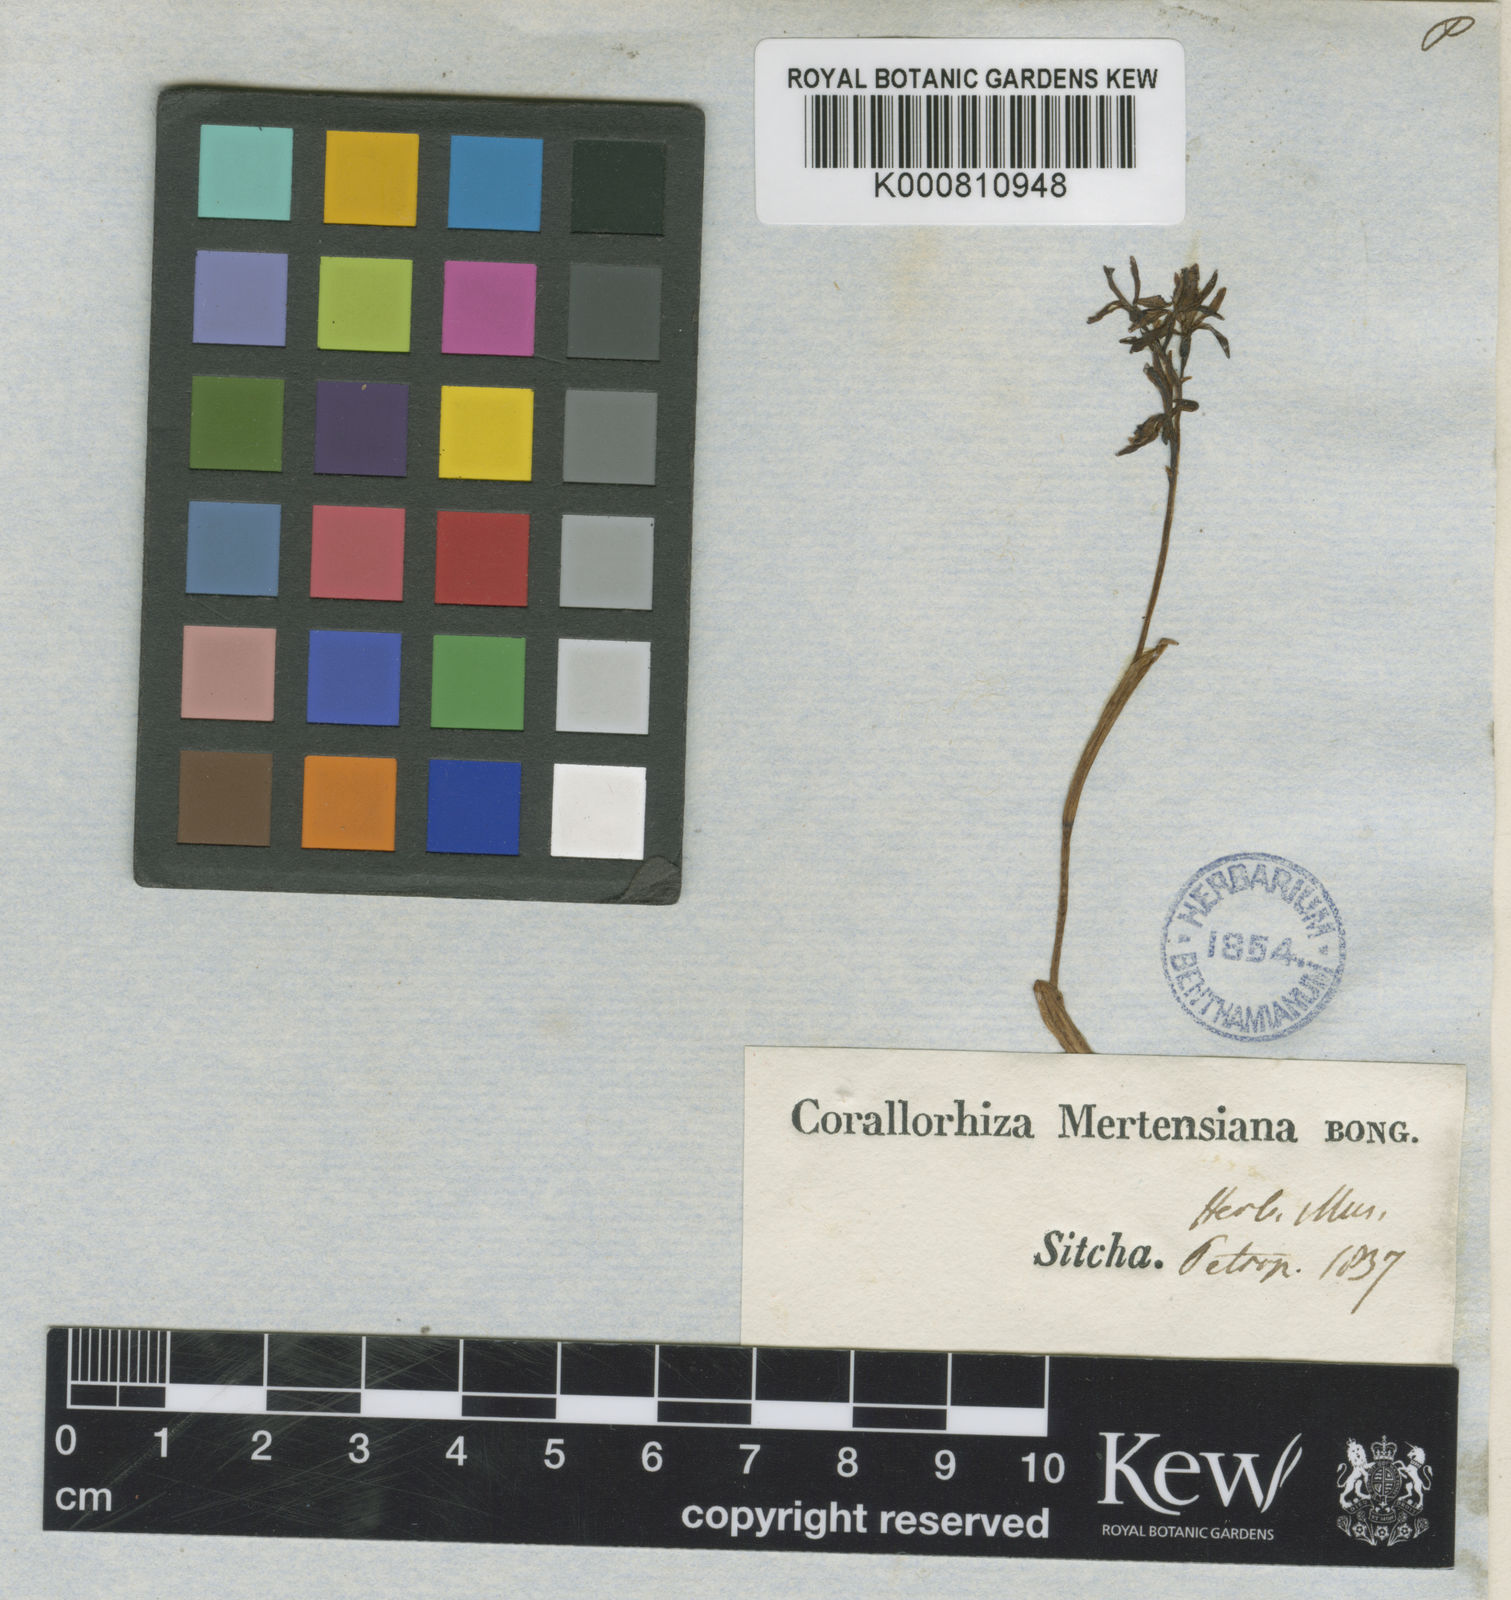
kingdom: Plantae
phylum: Tracheophyta
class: Liliopsida
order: Asparagales
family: Orchidaceae
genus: Corallorhiza
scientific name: Corallorhiza mertensiana
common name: Pacific coralroot
